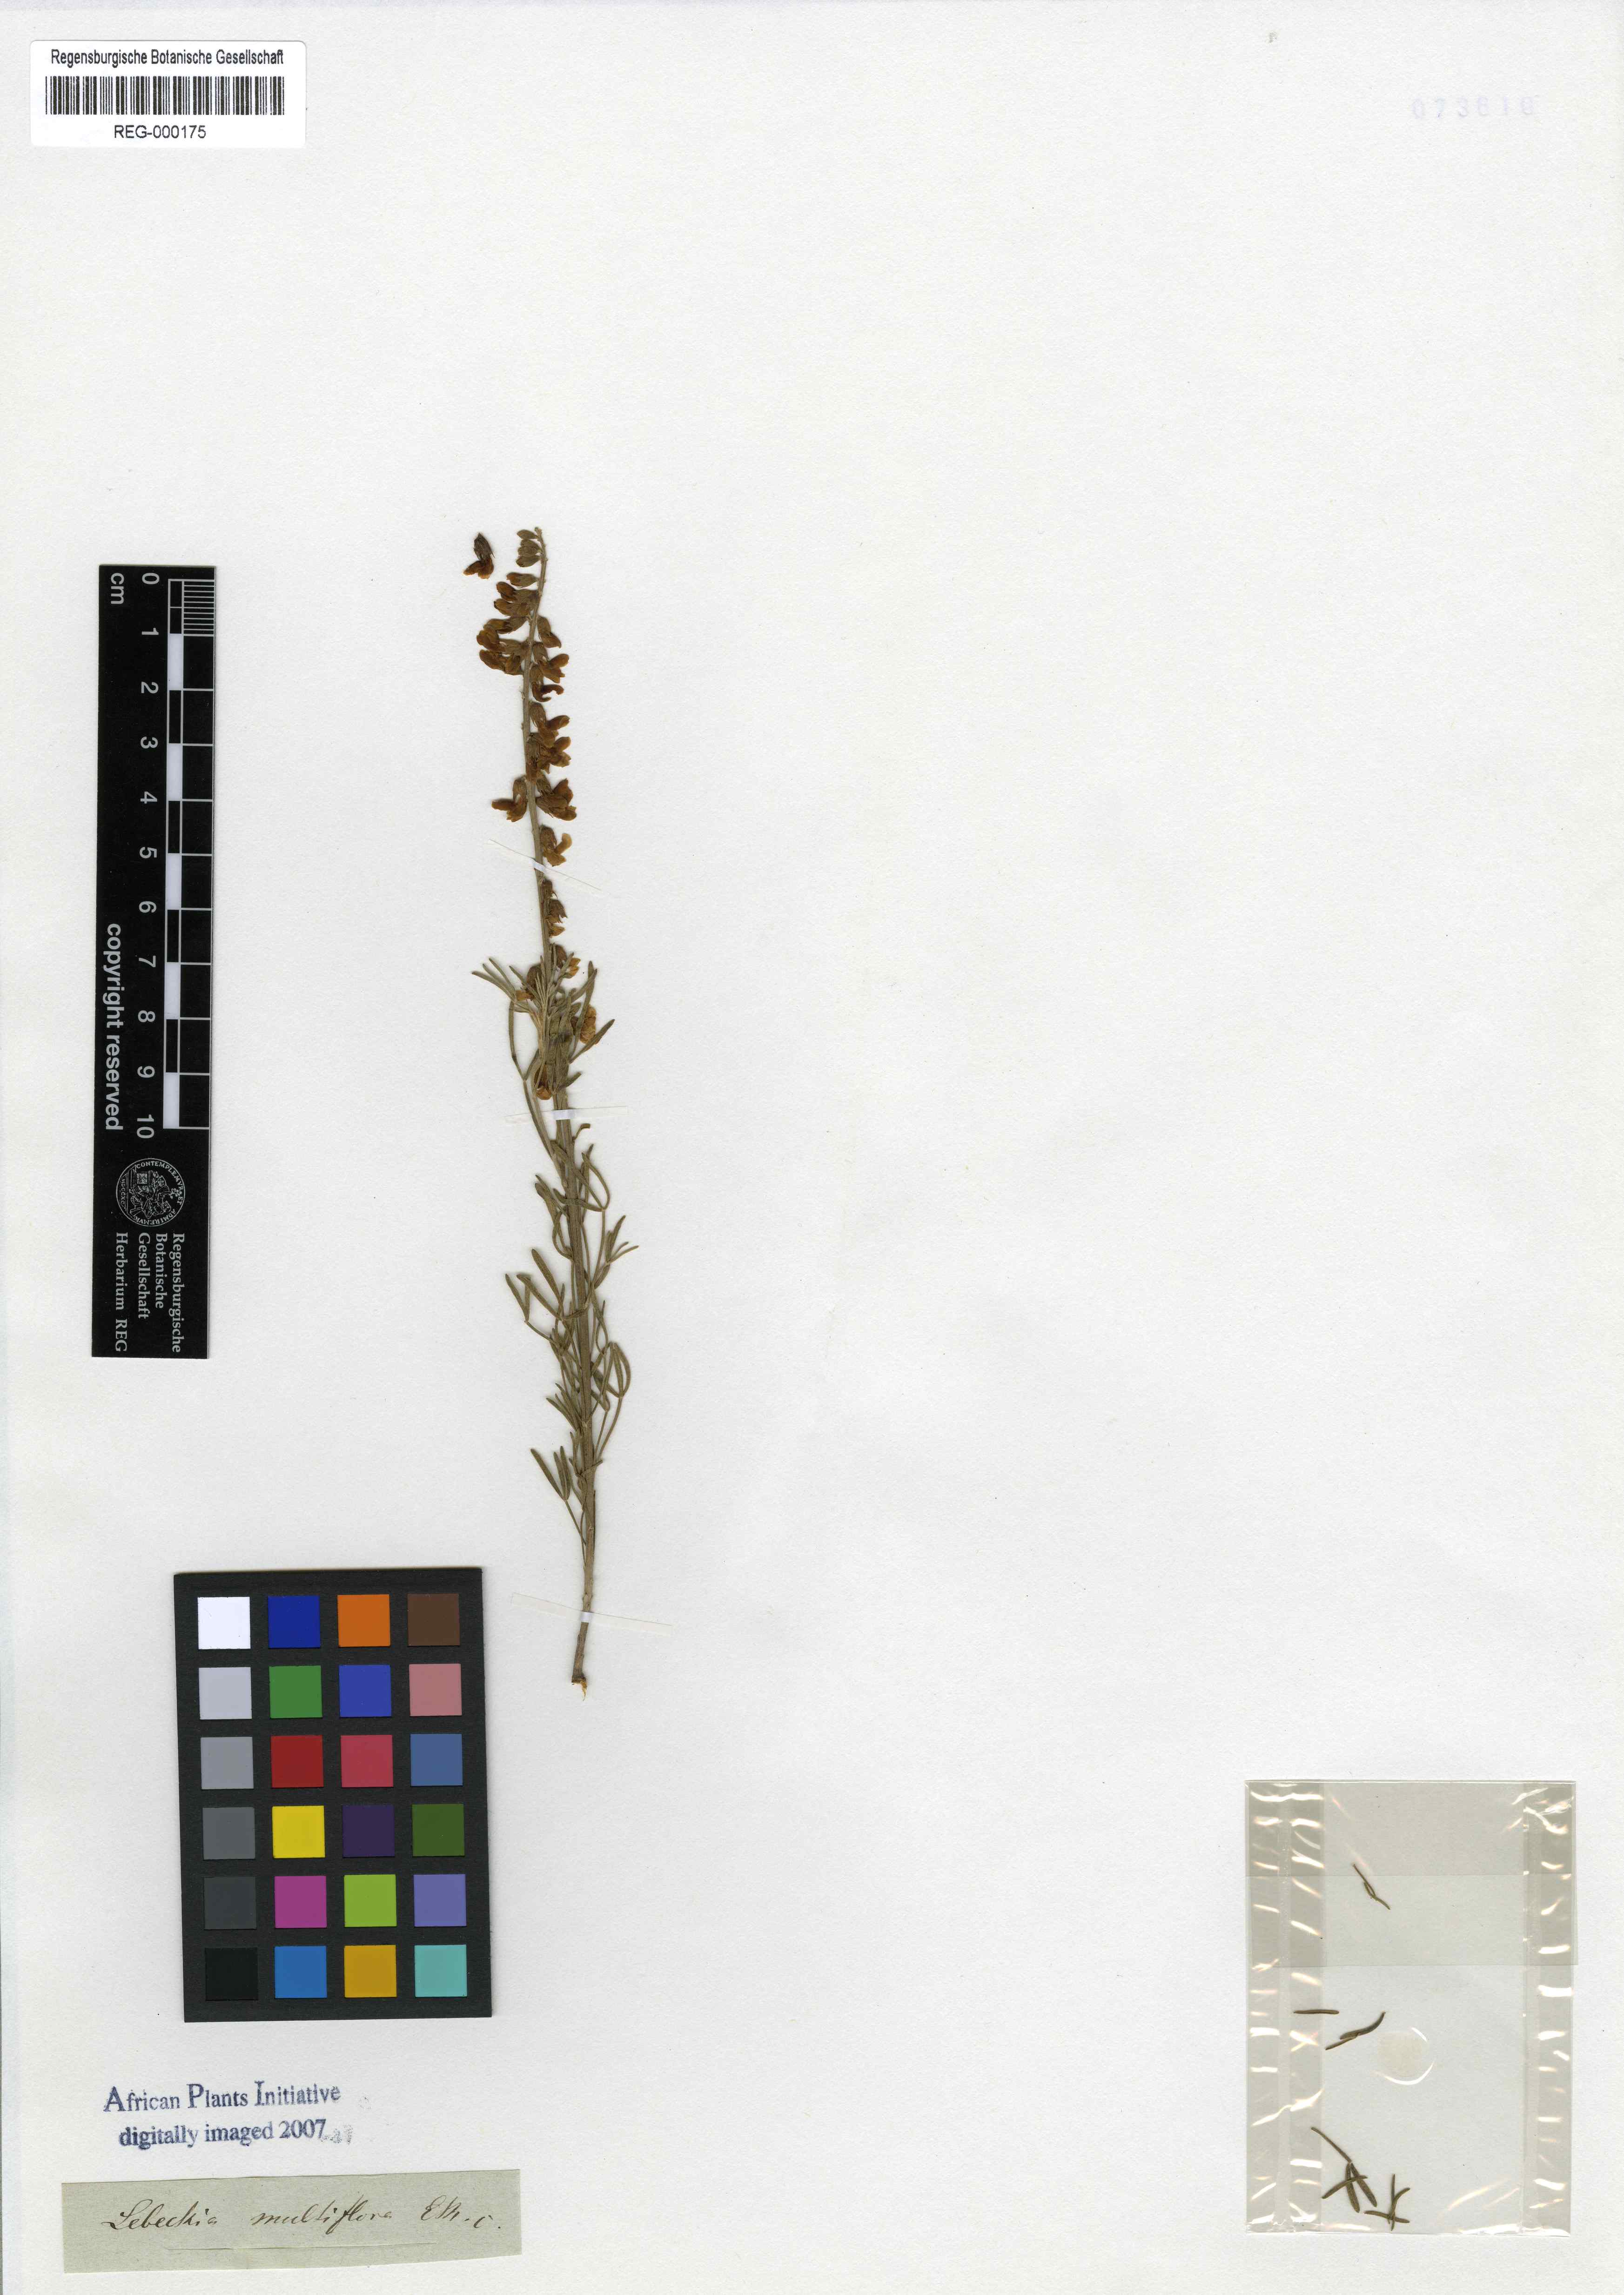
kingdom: Plantae
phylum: Tracheophyta
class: Magnoliopsida
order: Fabales
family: Fabaceae
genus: Calobota
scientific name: Calobota angustifolia
